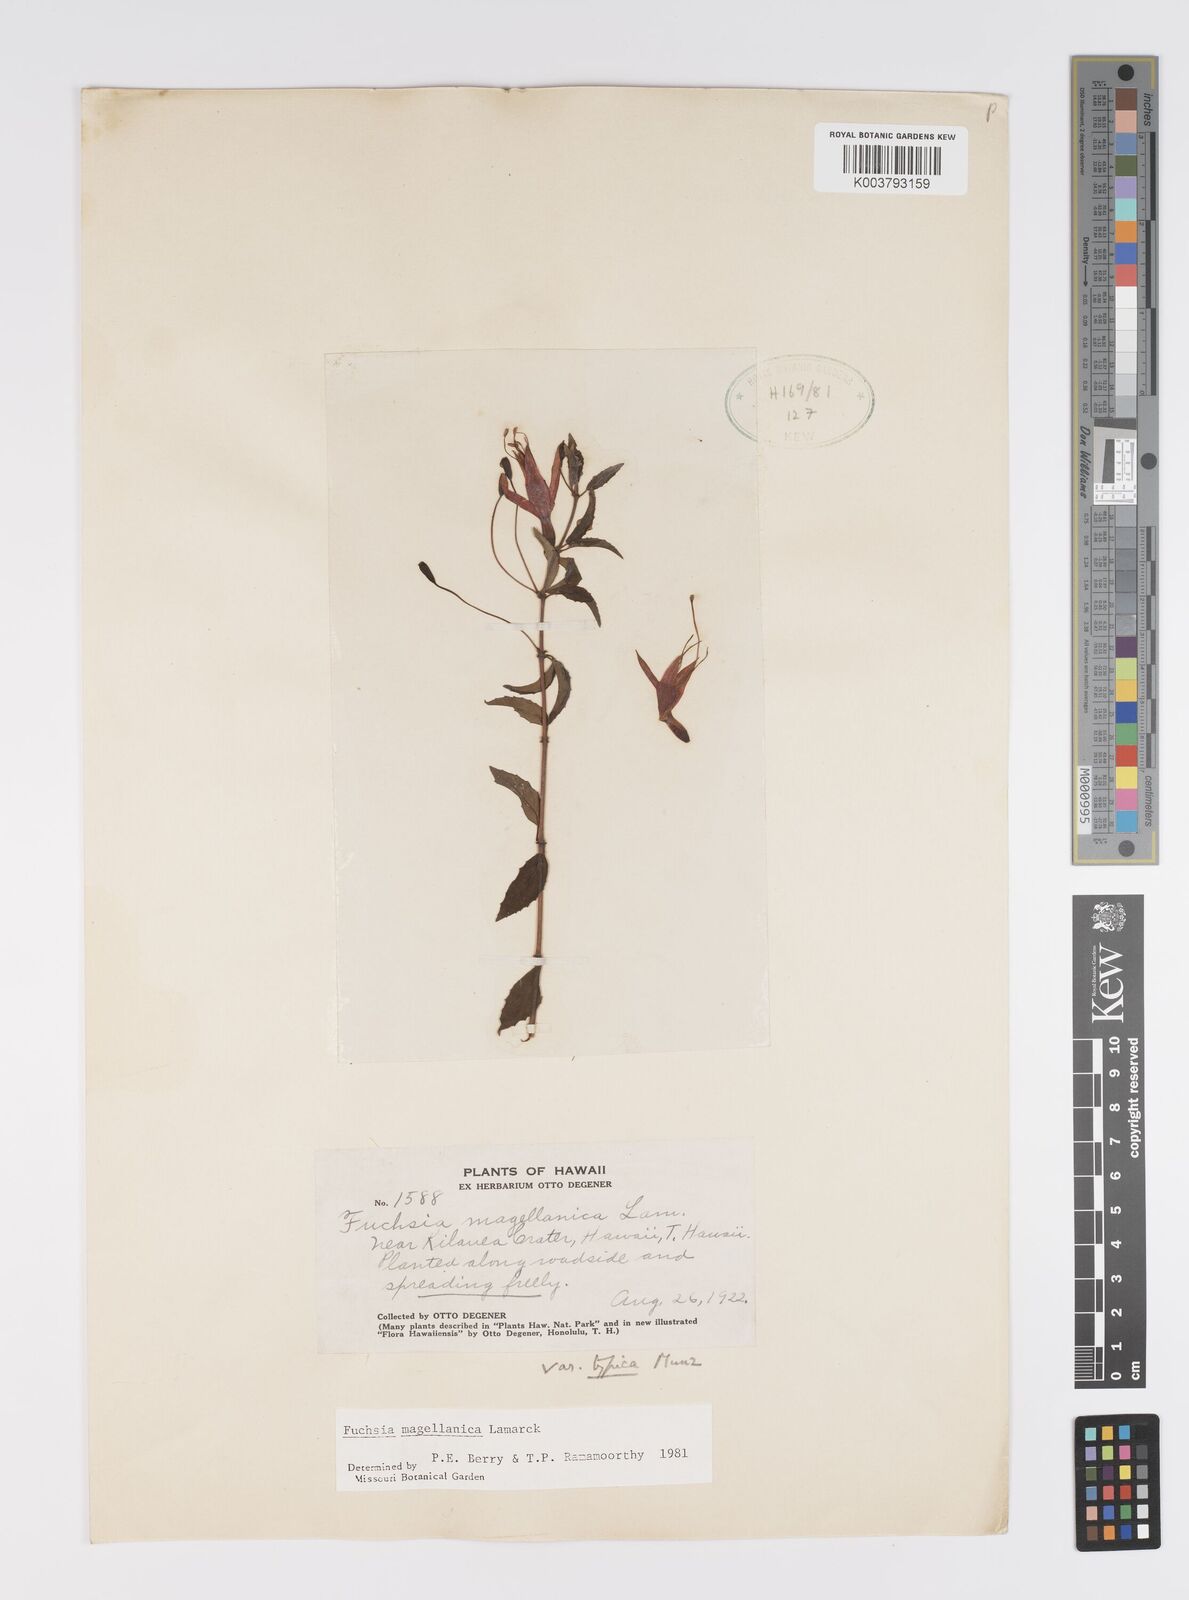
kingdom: Plantae
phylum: Tracheophyta
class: Magnoliopsida
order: Myrtales
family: Onagraceae
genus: Fuchsia
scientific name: Fuchsia magellanica
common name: Hardy fuchsia
